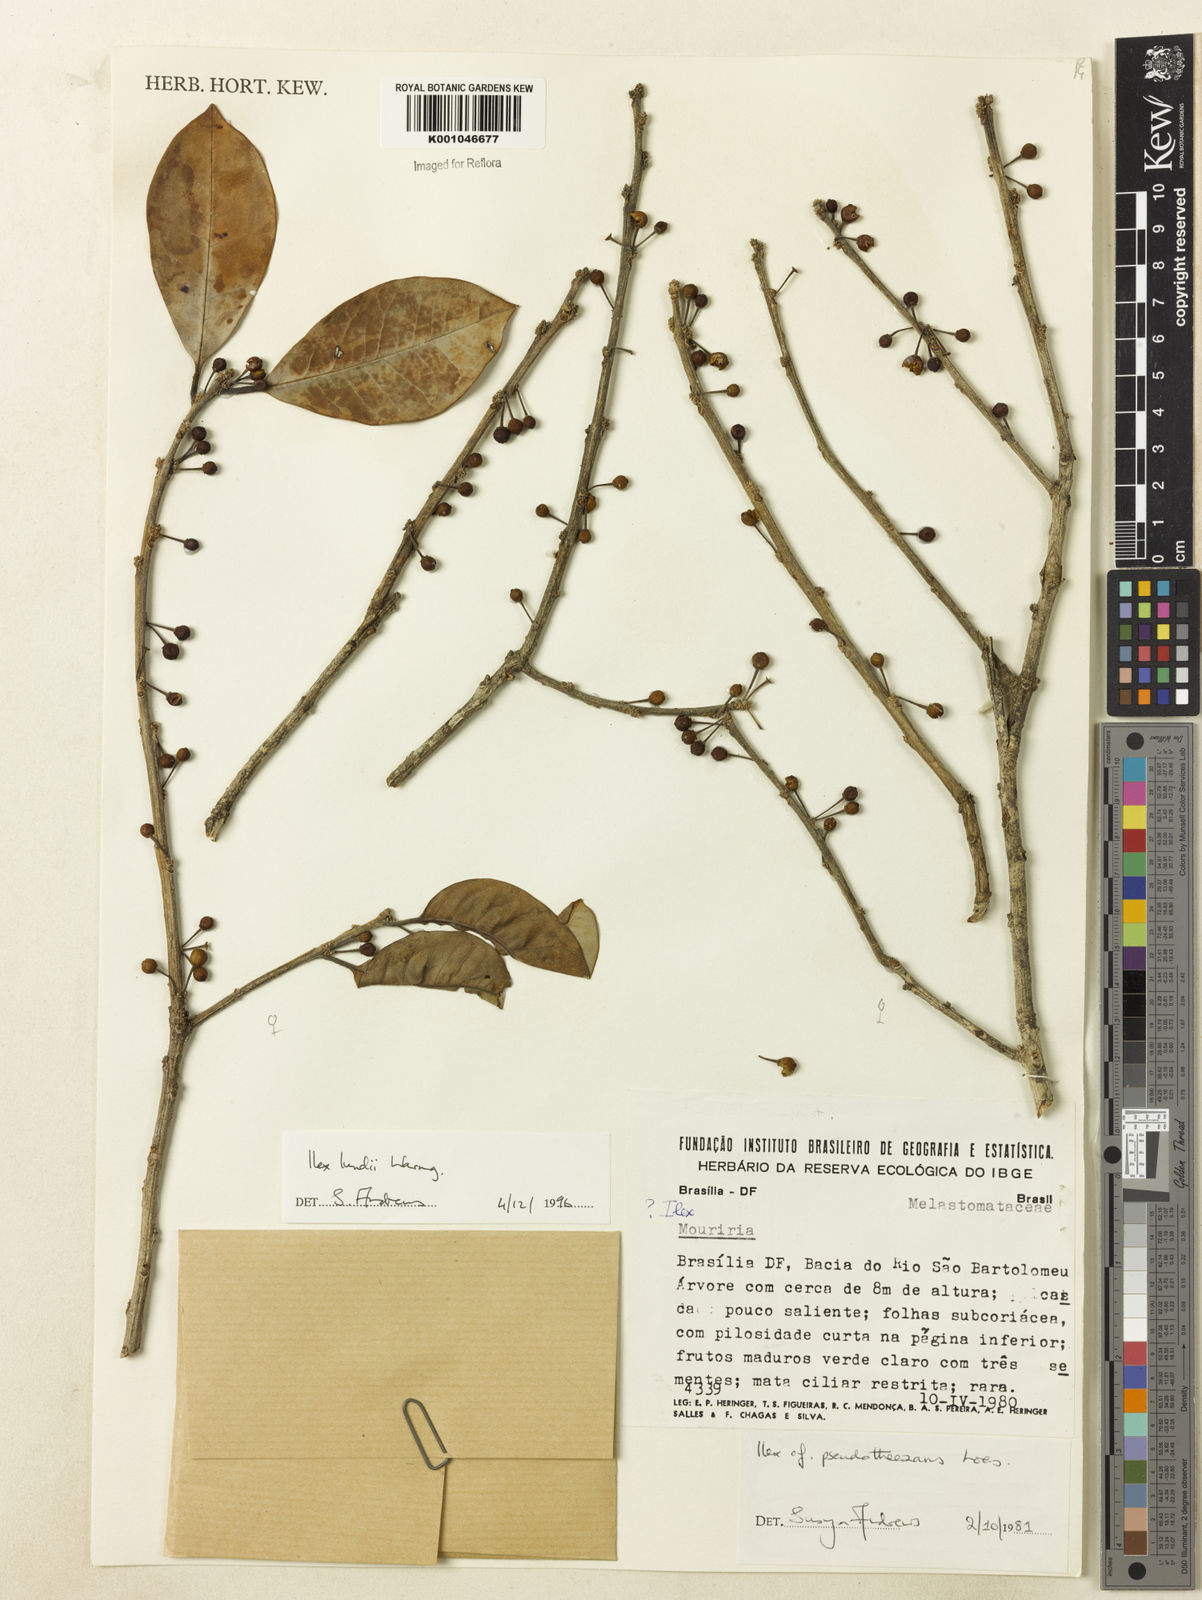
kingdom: Plantae
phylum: Tracheophyta
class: Magnoliopsida
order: Aquifoliales
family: Aquifoliaceae
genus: Ilex
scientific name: Ilex lundii
